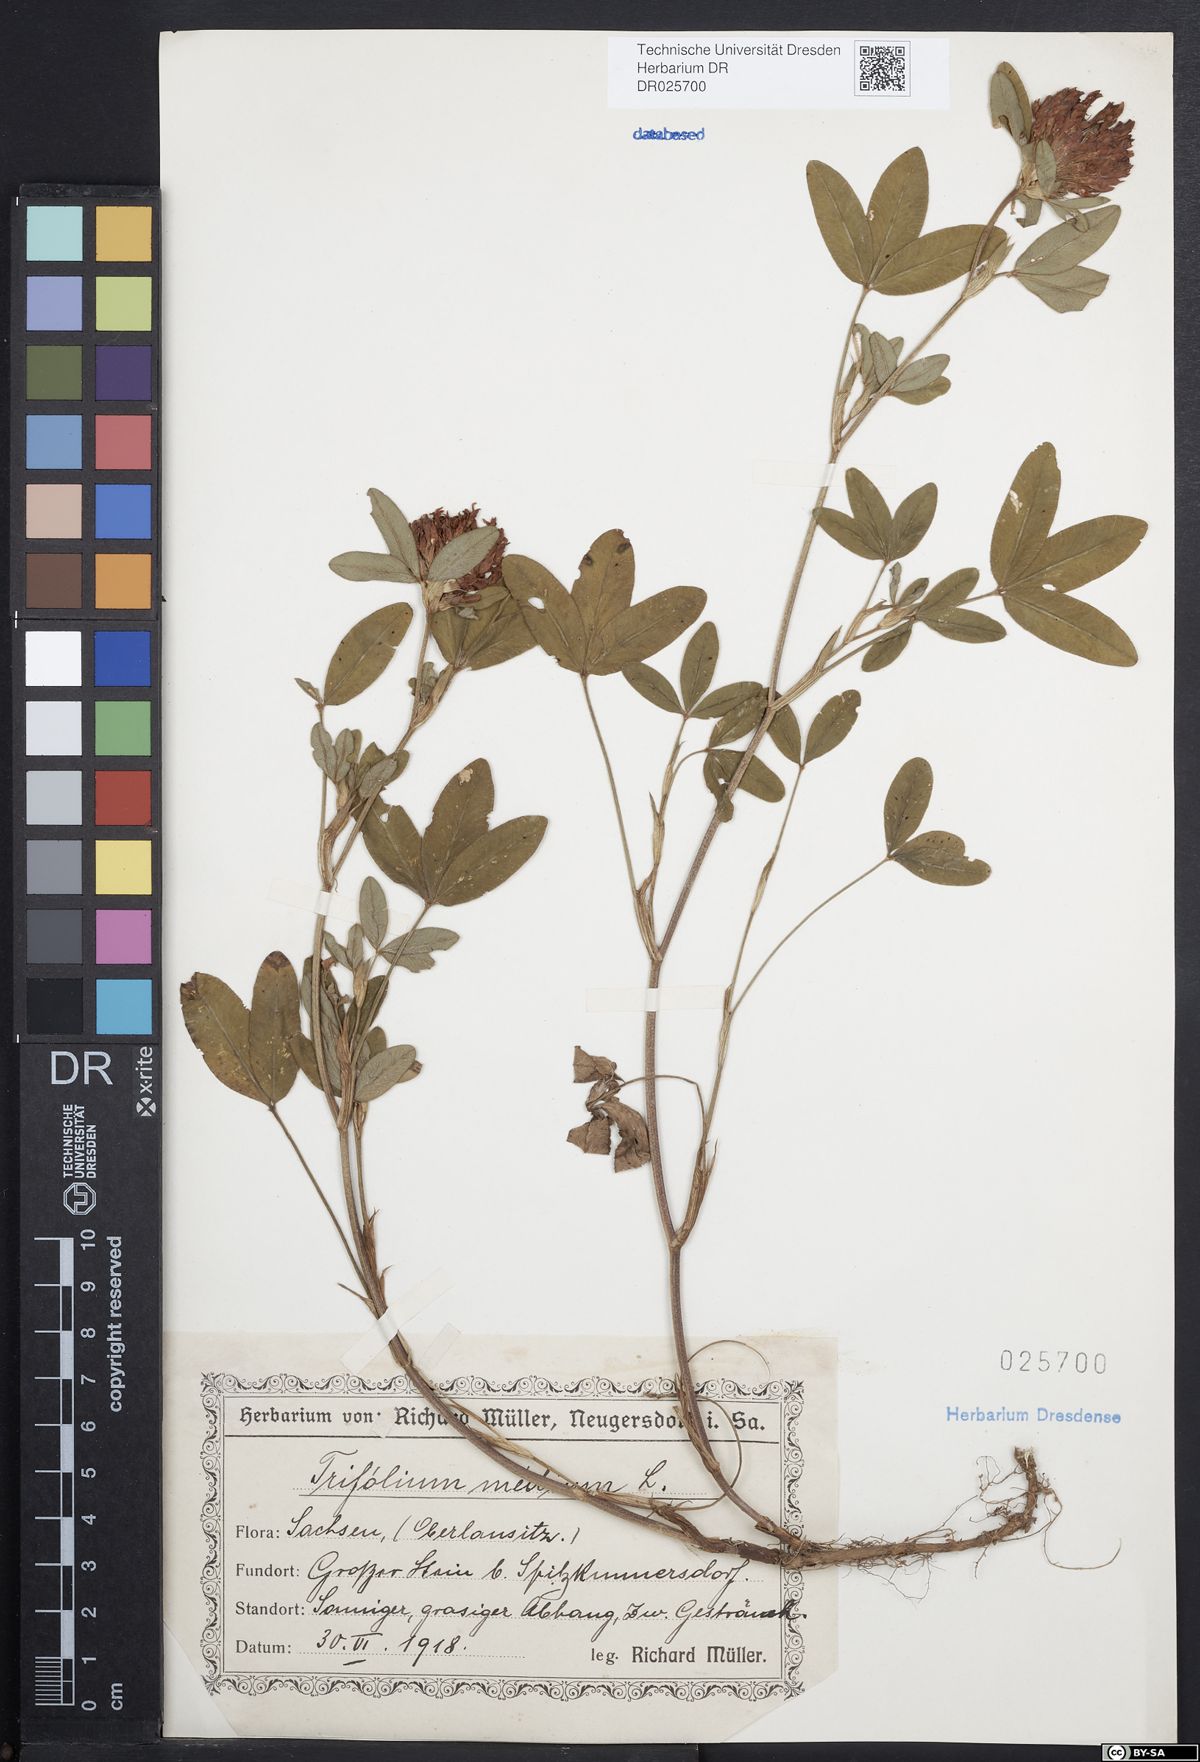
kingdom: Plantae
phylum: Tracheophyta
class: Magnoliopsida
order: Fabales
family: Fabaceae
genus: Trifolium
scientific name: Trifolium medium
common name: Zigzag clover
